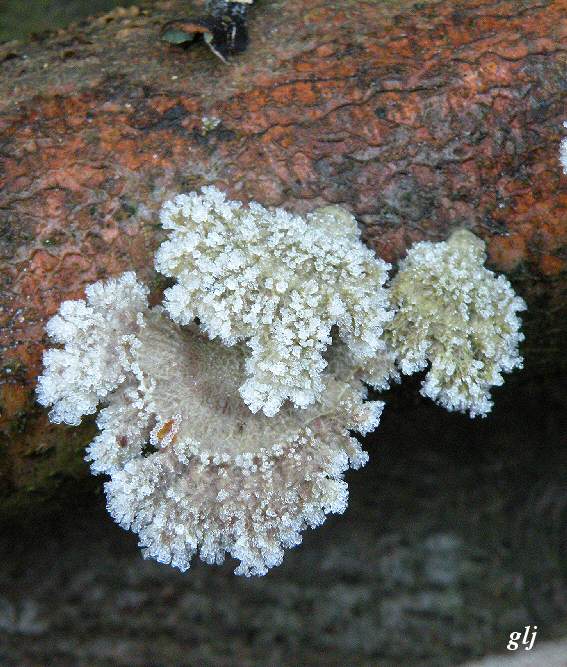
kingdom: Fungi
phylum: Basidiomycota
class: Agaricomycetes
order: Agaricales
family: Schizophyllaceae
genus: Schizophyllum
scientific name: Schizophyllum commune
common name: kløvblad
